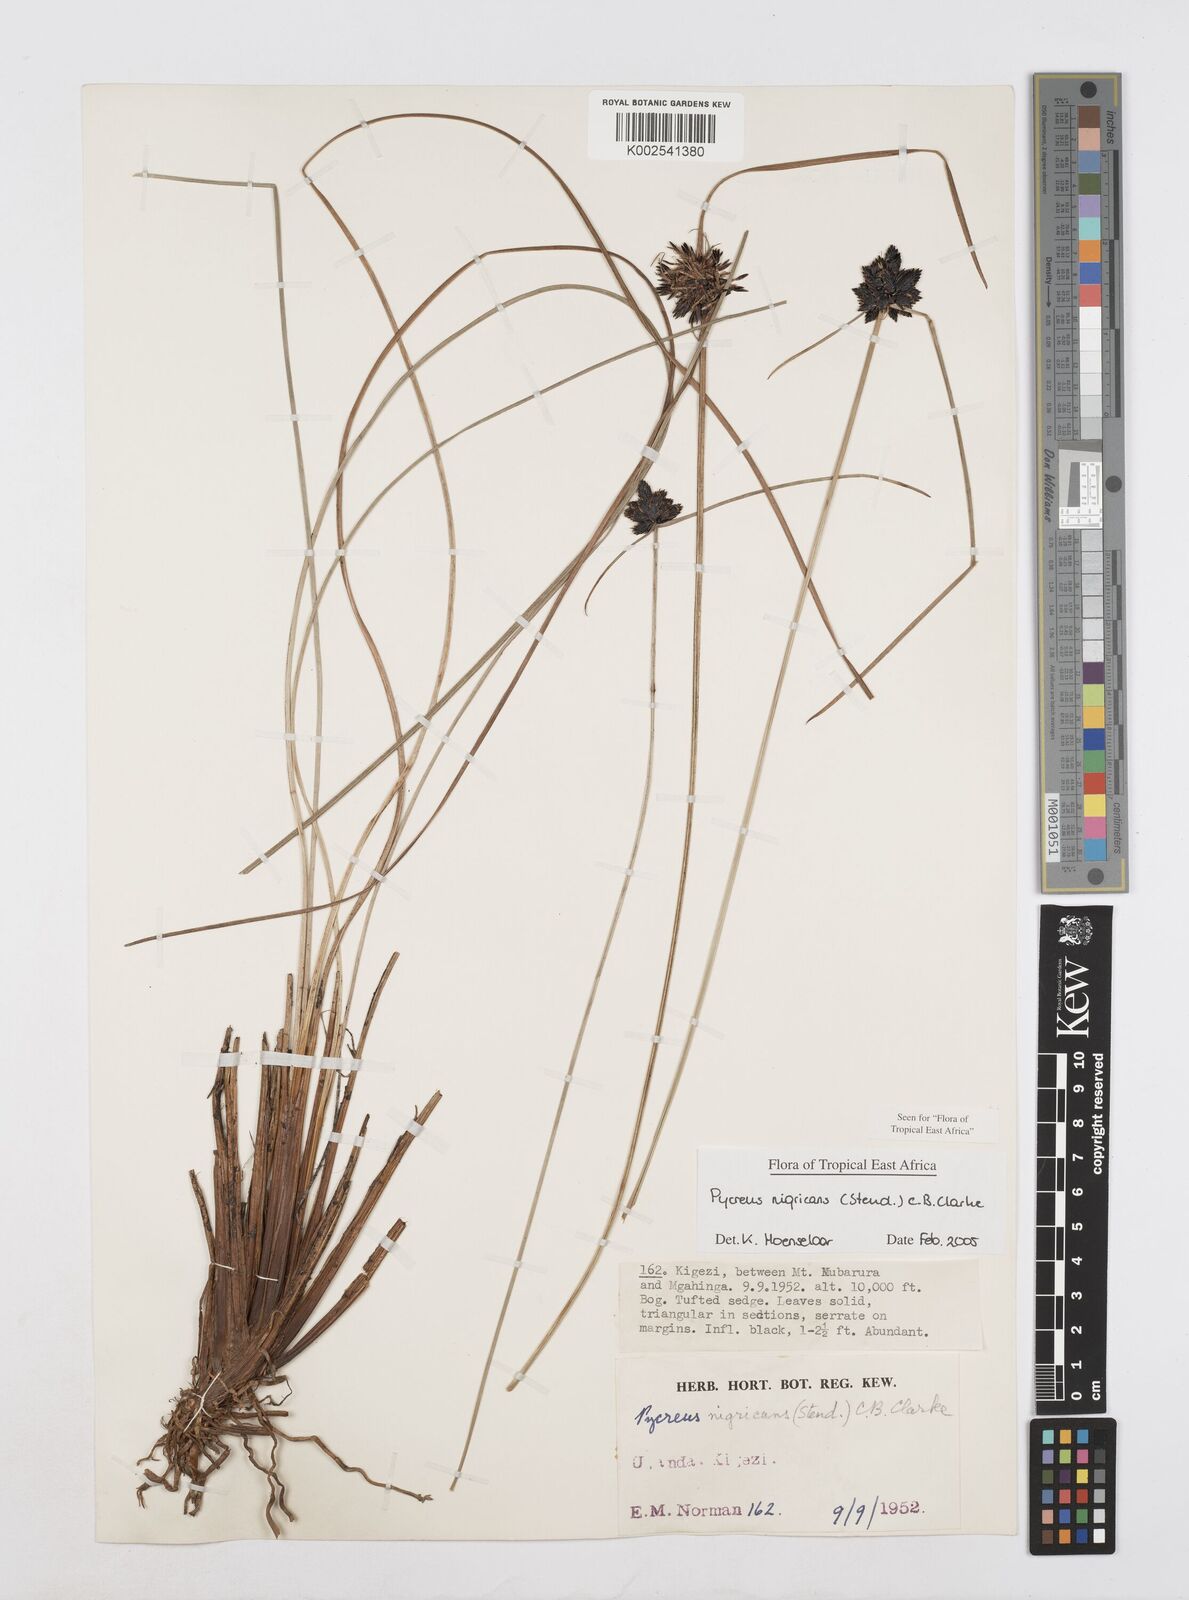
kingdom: Plantae
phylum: Tracheophyta
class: Liliopsida
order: Poales
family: Cyperaceae
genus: Cyperus
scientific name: Cyperus nigricans
